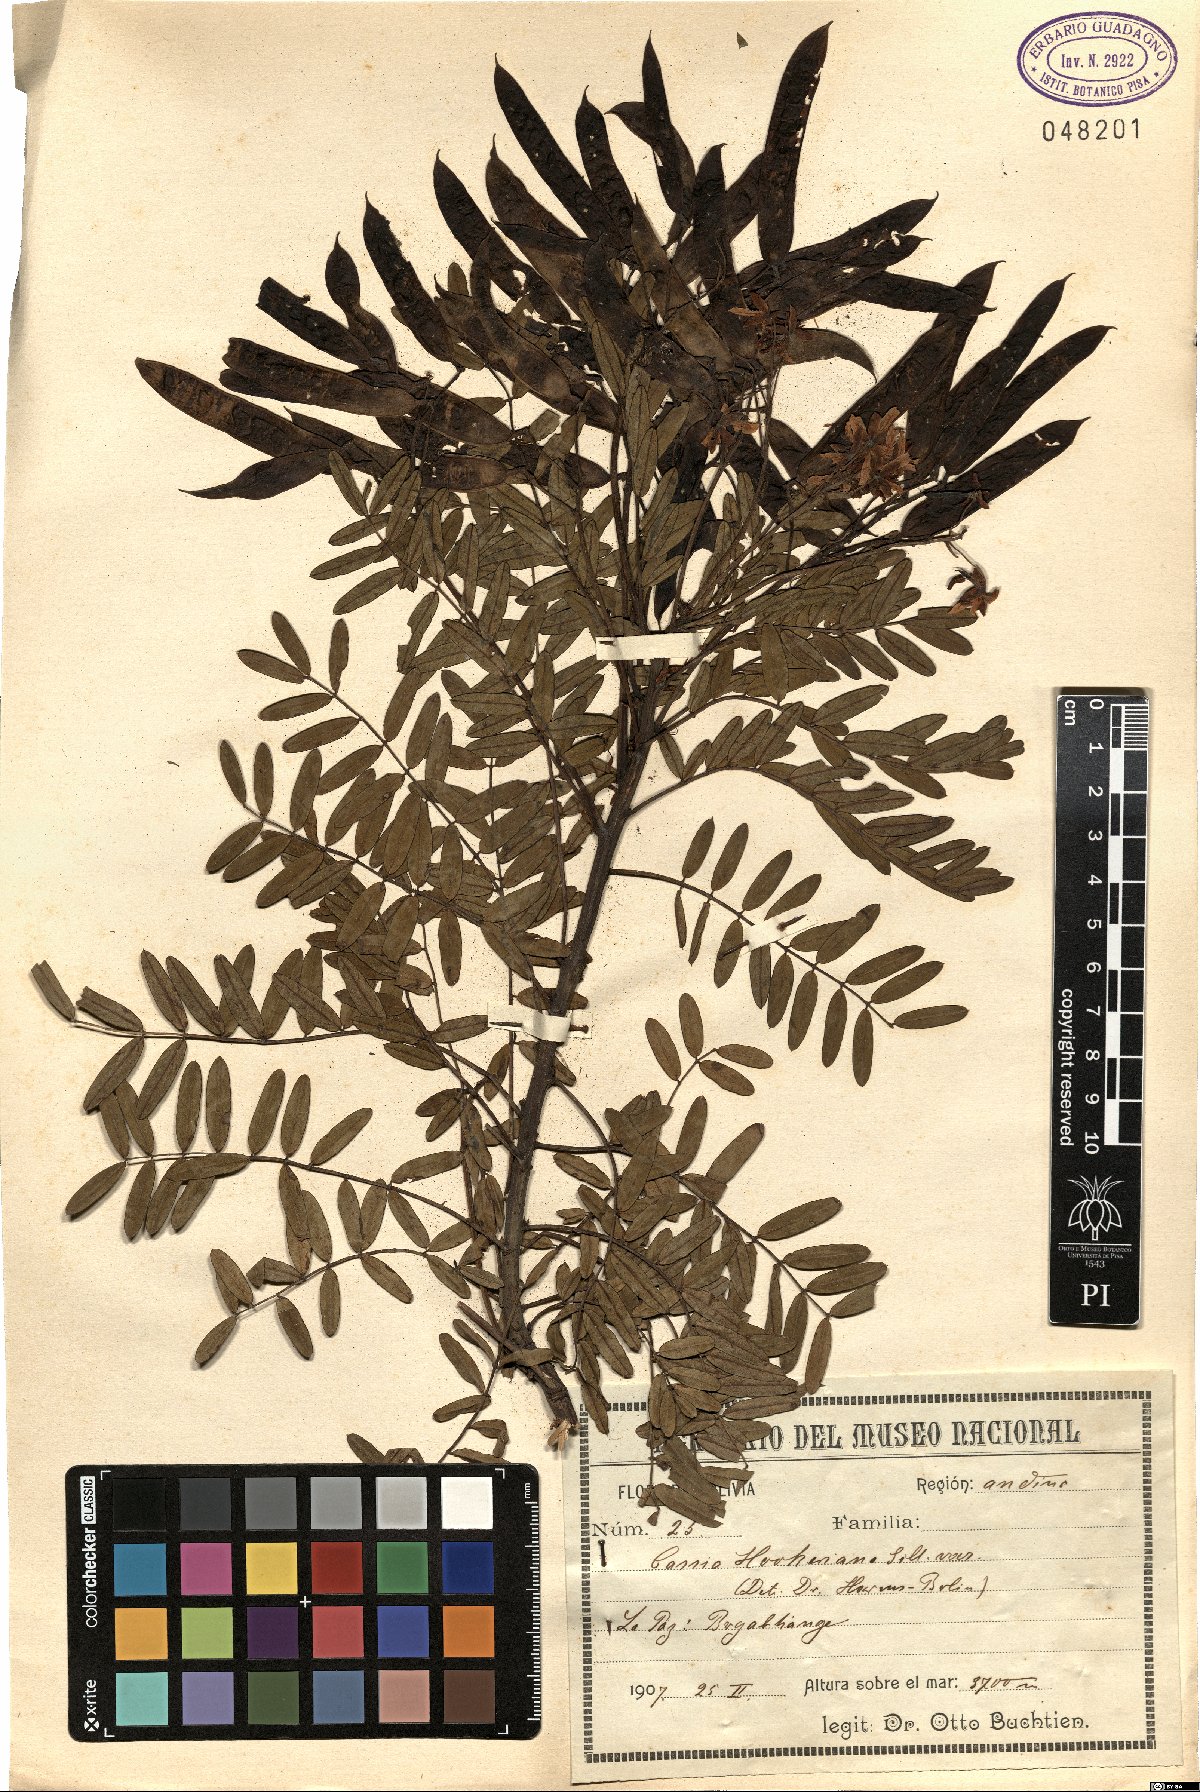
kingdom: Plantae
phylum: Tracheophyta
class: Magnoliopsida
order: Fabales
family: Fabaceae
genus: Senna
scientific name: Senna birostris
